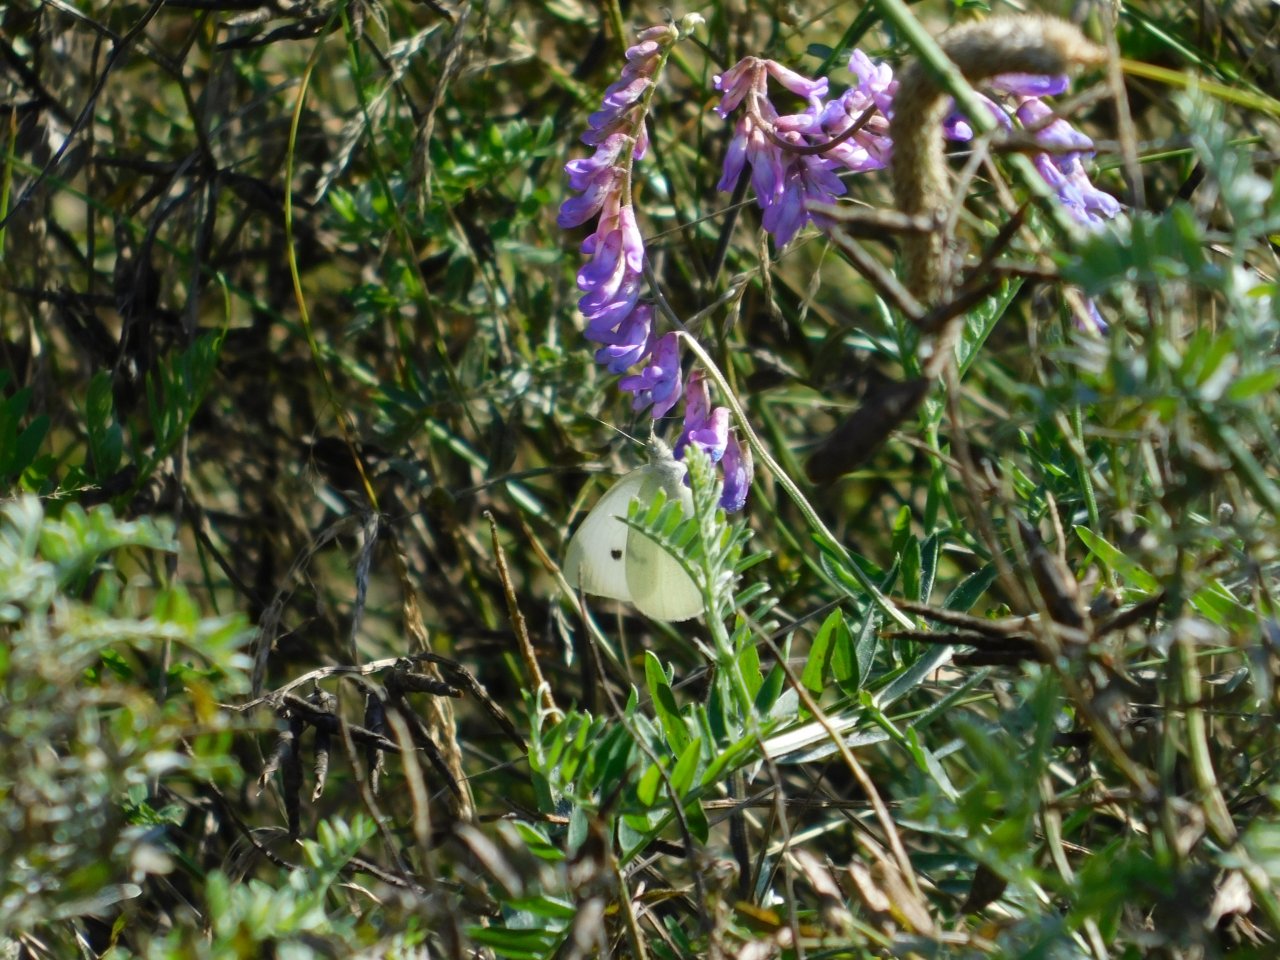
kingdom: Animalia
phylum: Arthropoda
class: Insecta
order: Lepidoptera
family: Pieridae
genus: Pieris
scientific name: Pieris rapae
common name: Cabbage White
